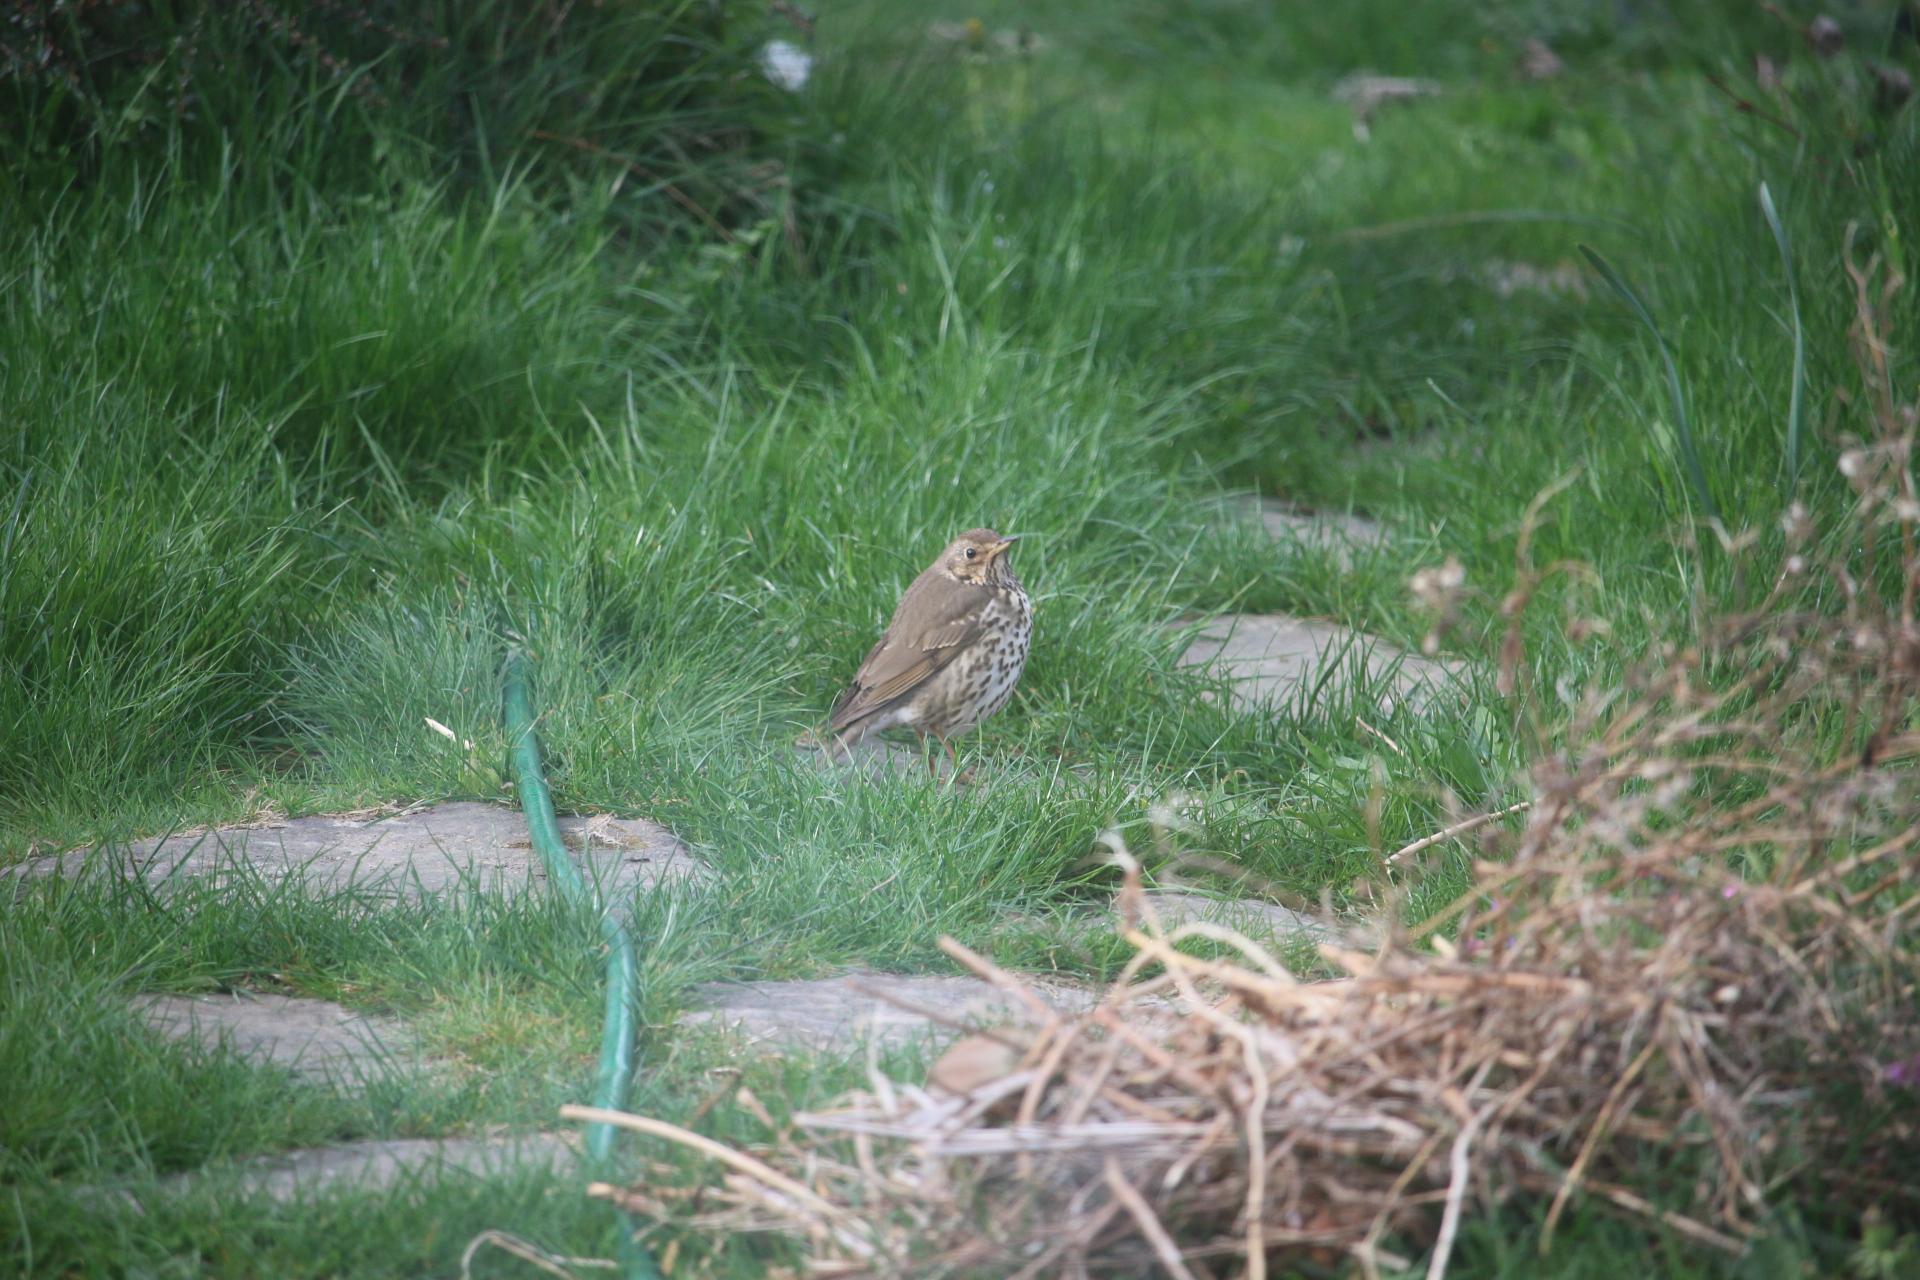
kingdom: Animalia
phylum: Chordata
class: Aves
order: Passeriformes
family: Turdidae
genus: Turdus
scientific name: Turdus philomelos
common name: Sangdrossel
